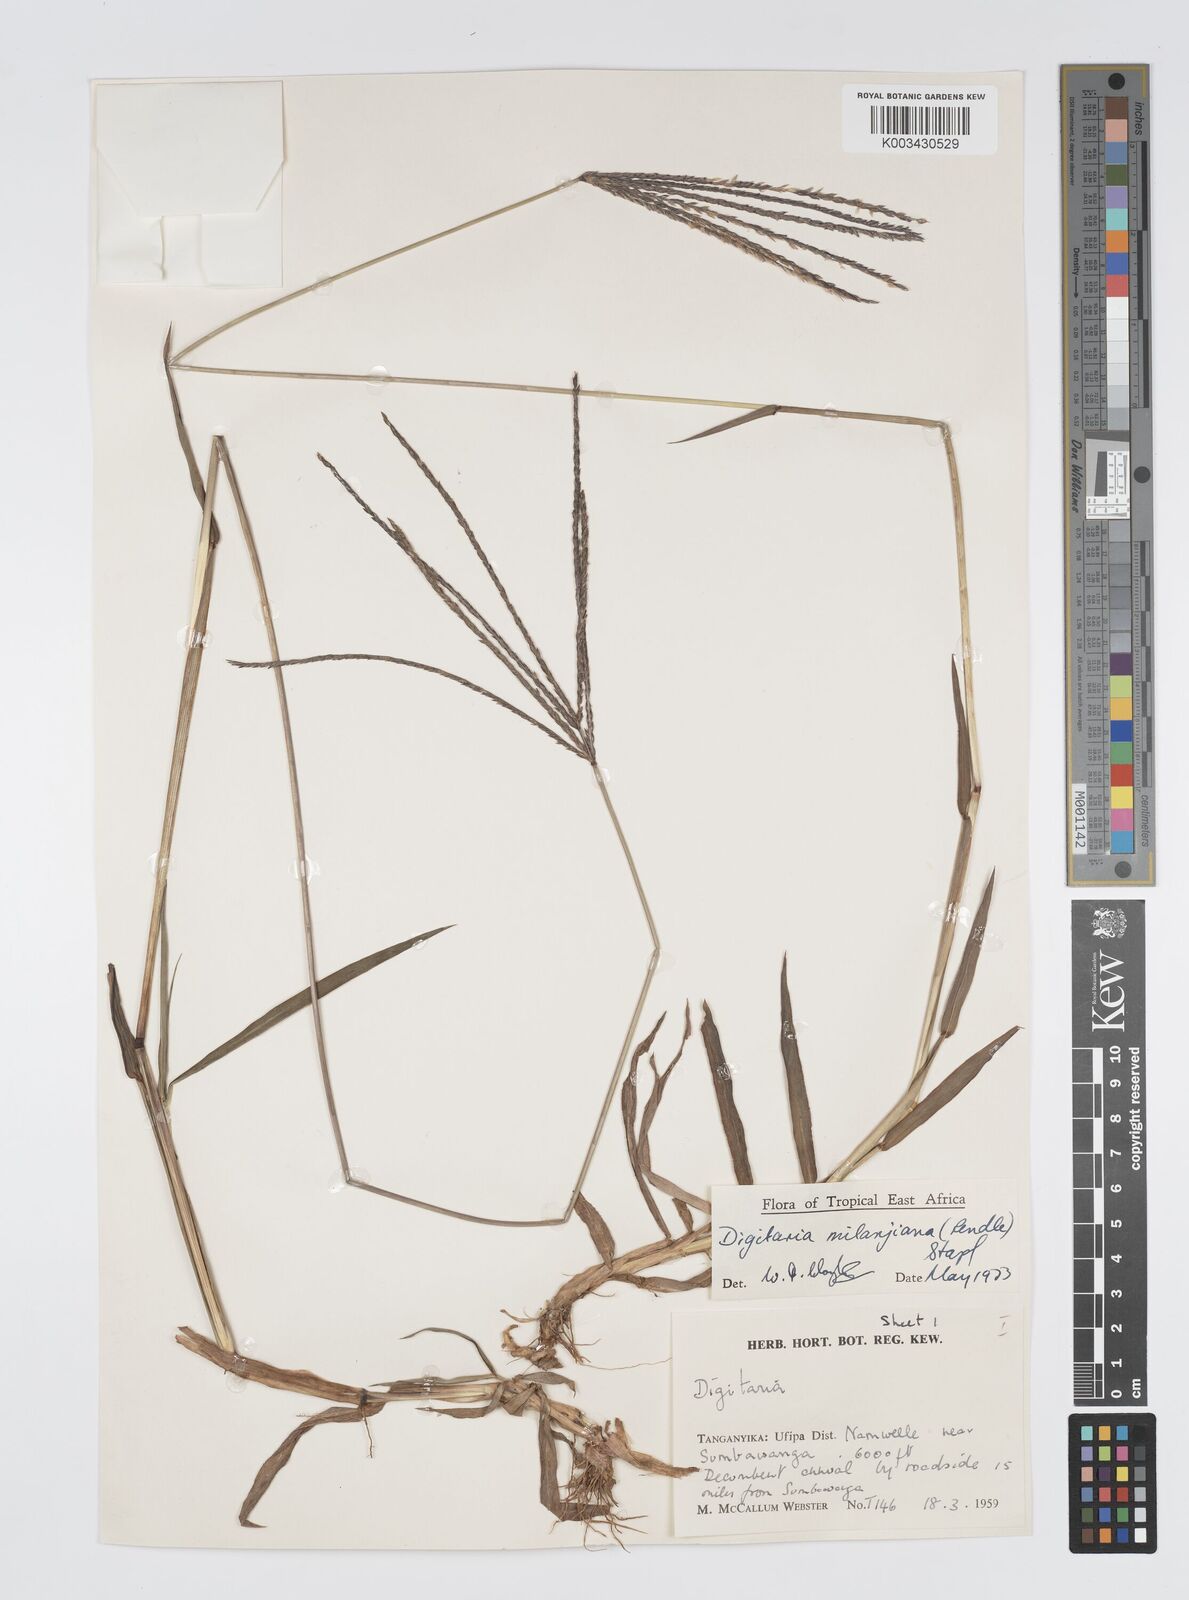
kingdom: Plantae
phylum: Tracheophyta
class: Liliopsida
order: Poales
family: Poaceae
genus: Digitaria
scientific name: Digitaria milanjiana
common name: Madagascar crabgrass
